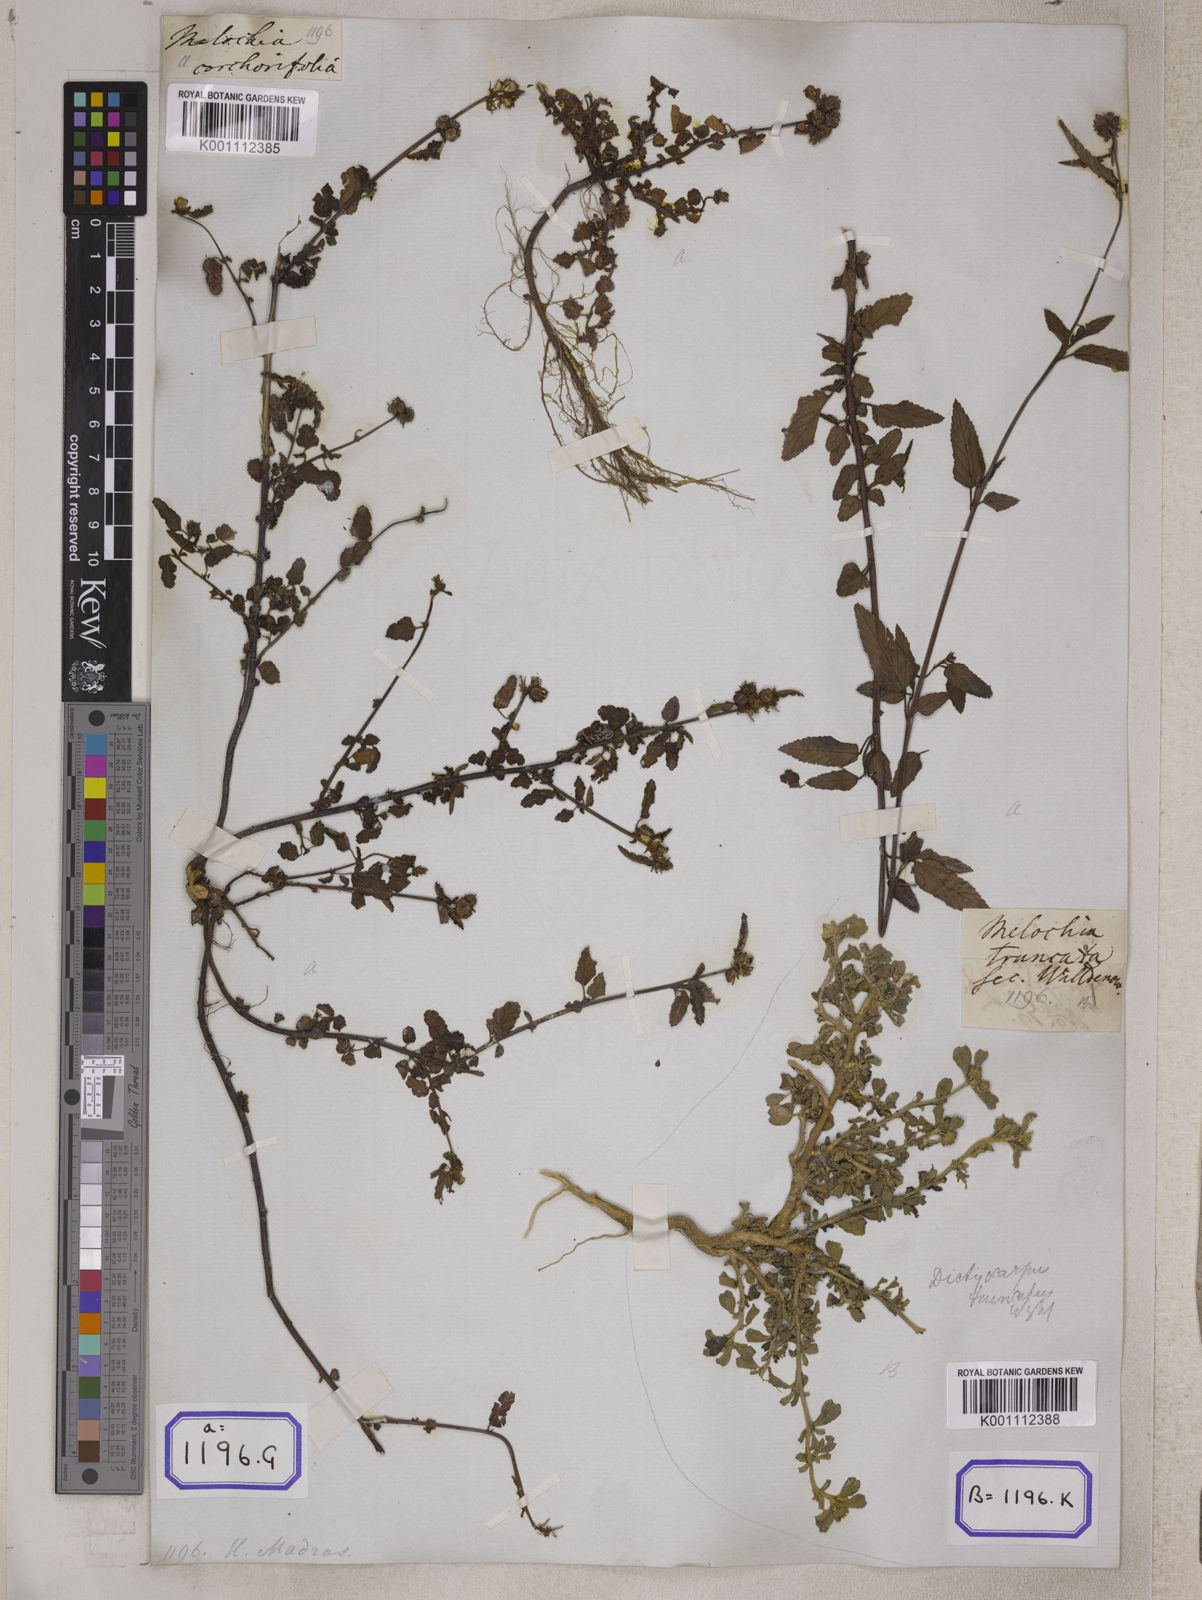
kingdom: Plantae
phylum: Tracheophyta
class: Magnoliopsida
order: Malvales
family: Malvaceae
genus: Melochia
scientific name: Melochia corchorifolia
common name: Chocolateweed
